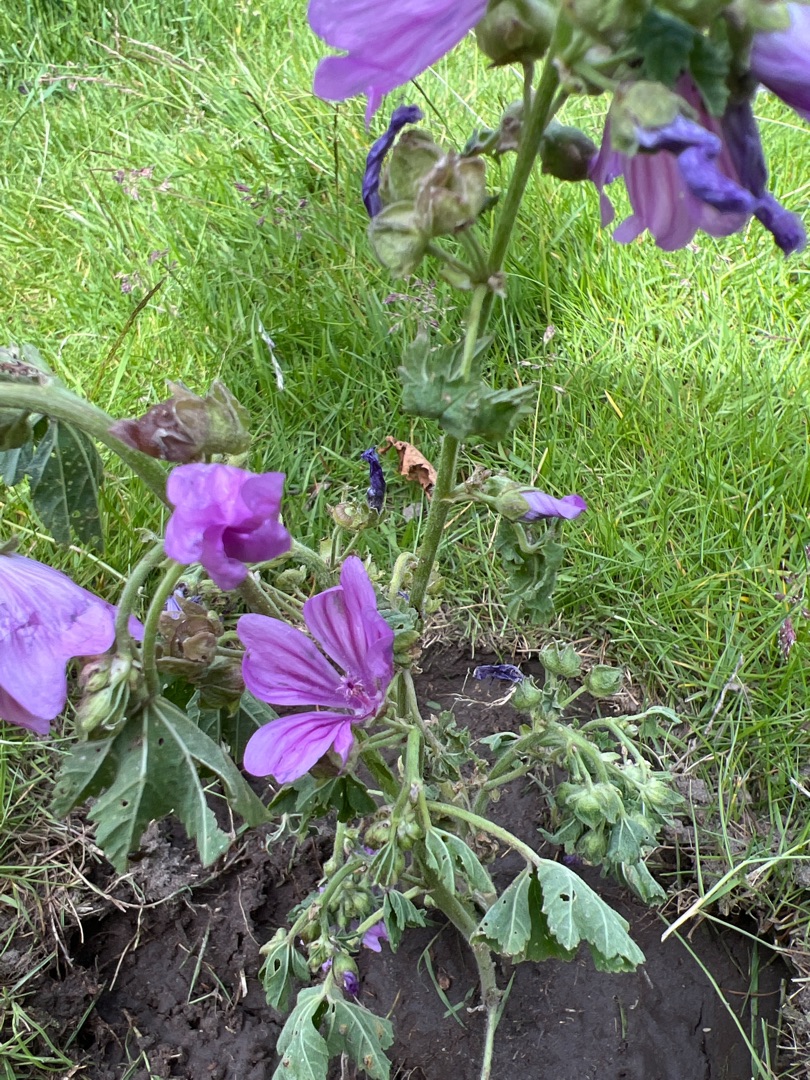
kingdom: Plantae
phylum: Tracheophyta
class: Magnoliopsida
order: Malvales
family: Malvaceae
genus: Malva
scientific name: Malva sylvestris
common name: Almindelig katost
